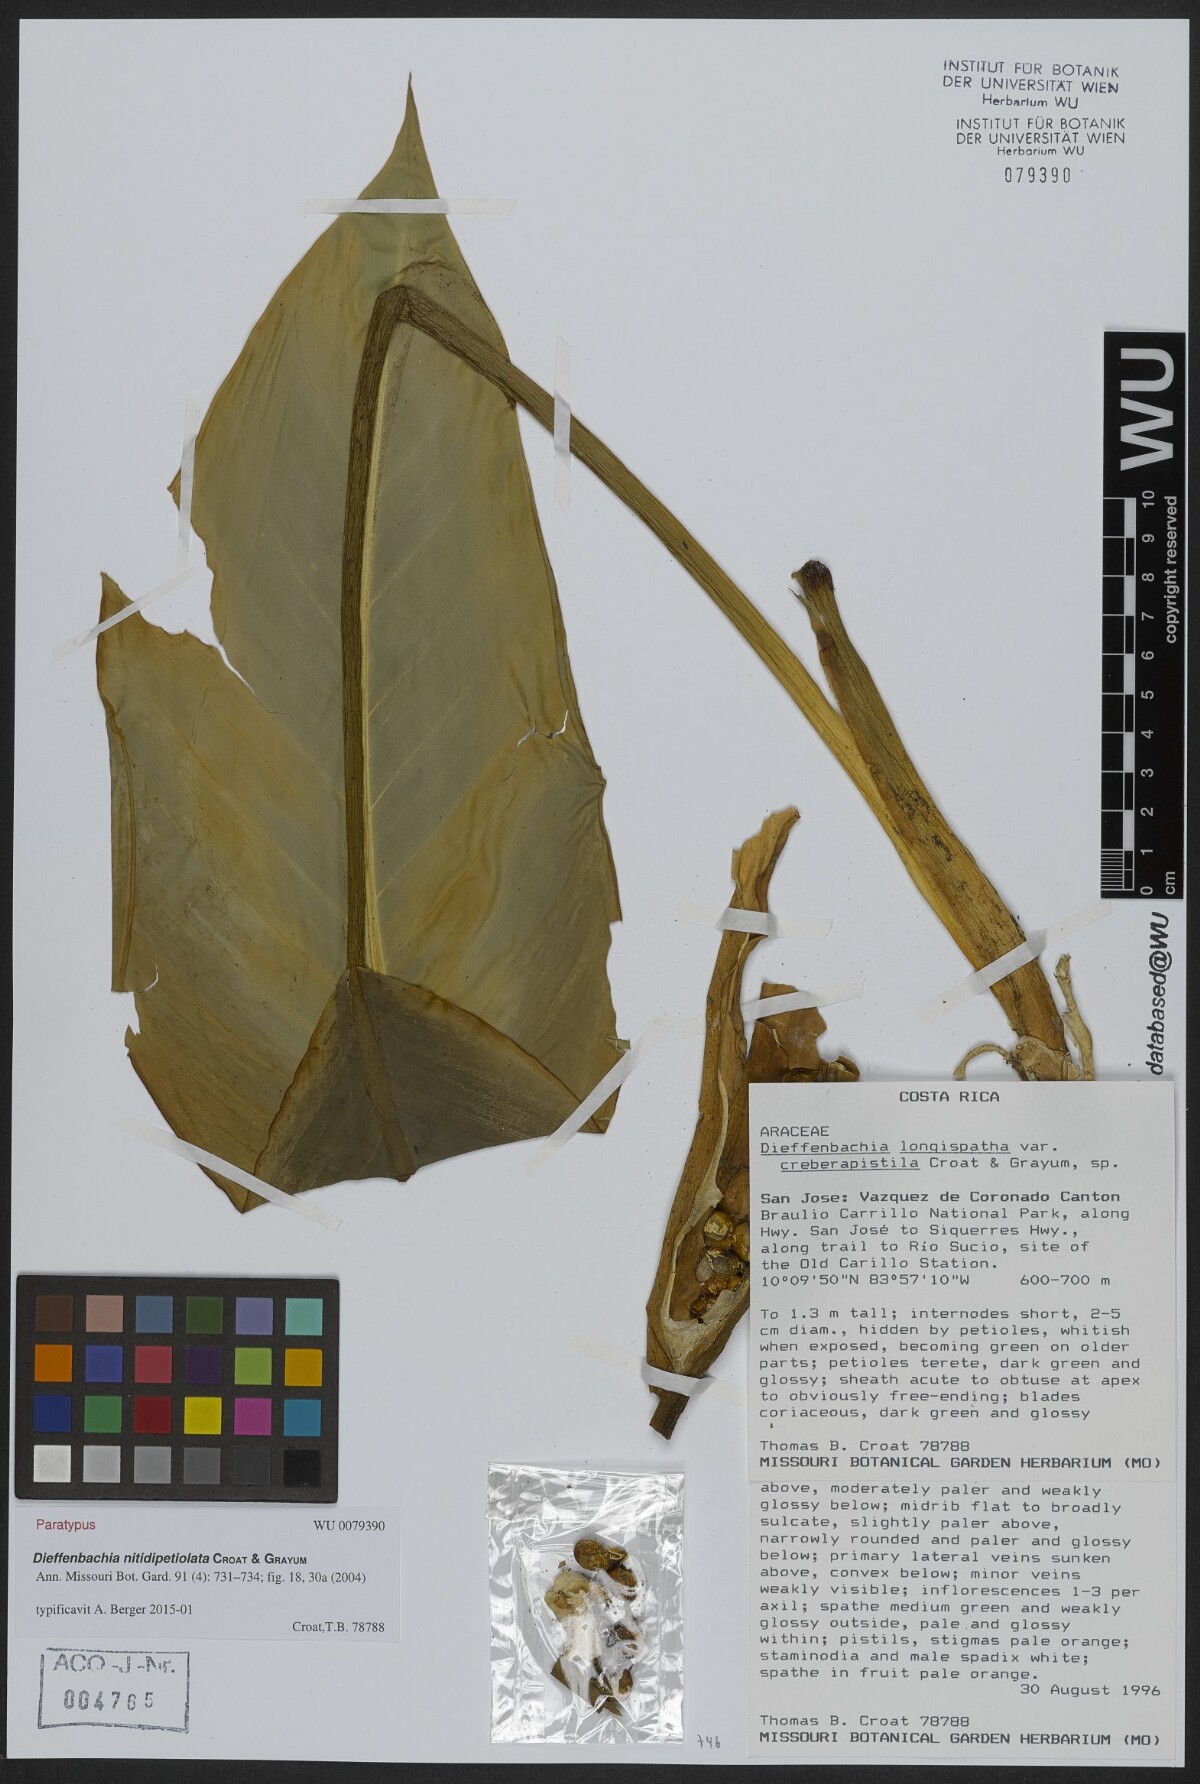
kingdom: Plantae
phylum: Tracheophyta
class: Liliopsida
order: Alismatales
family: Araceae
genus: Dieffenbachia
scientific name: Dieffenbachia nitidipetiolata
